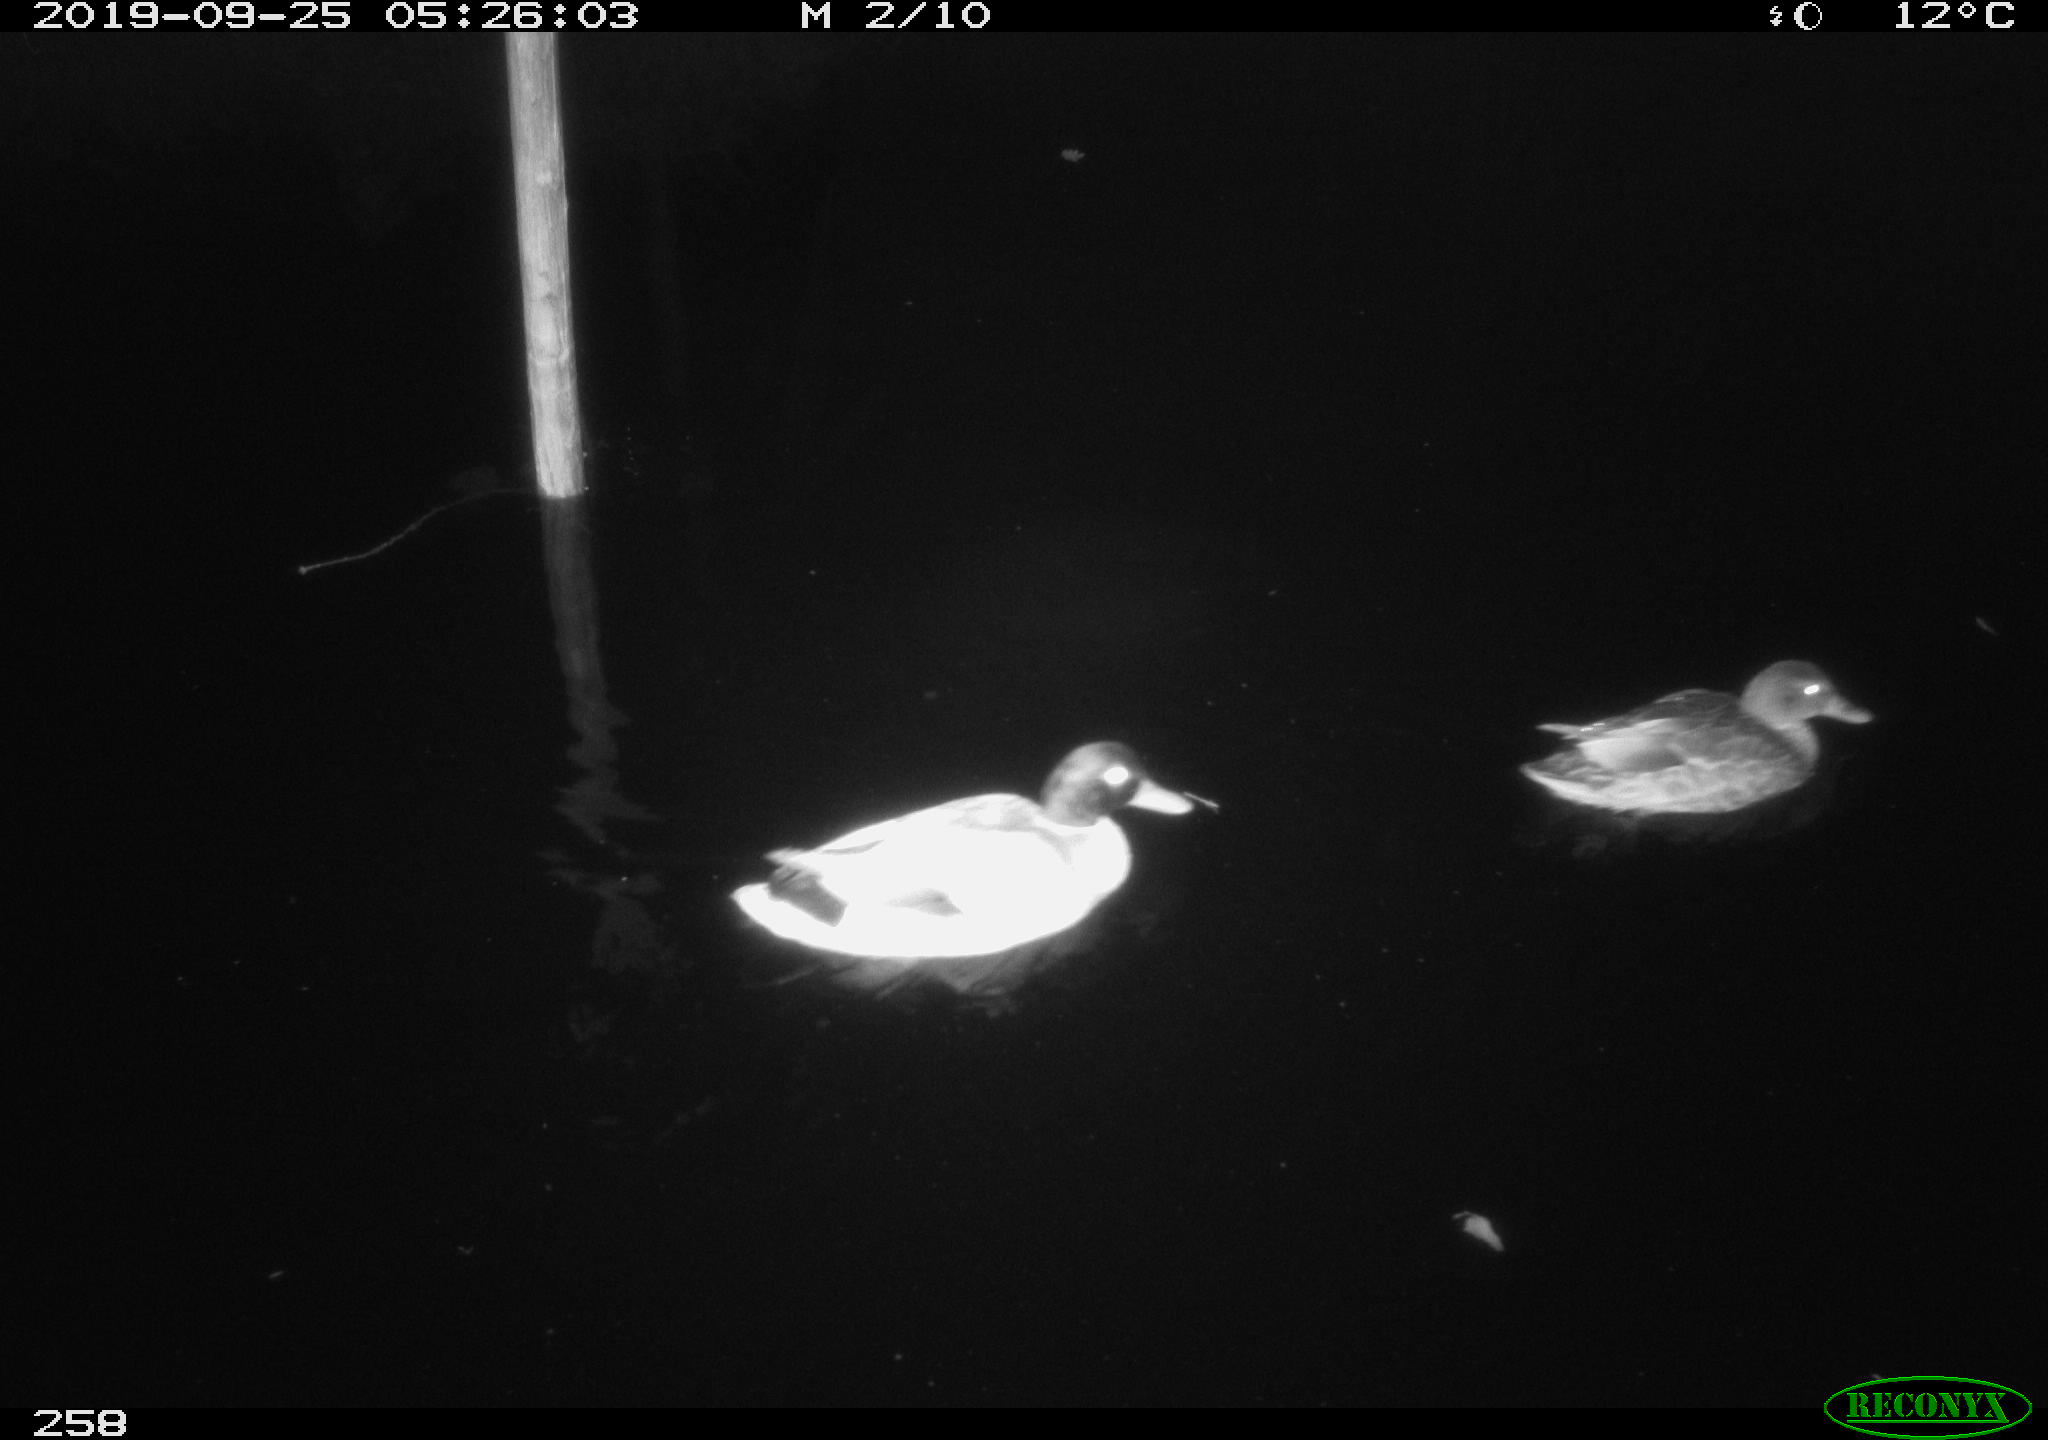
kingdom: Animalia
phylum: Chordata
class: Aves
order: Anseriformes
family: Anatidae
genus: Anas
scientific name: Anas platyrhynchos
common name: Mallard
